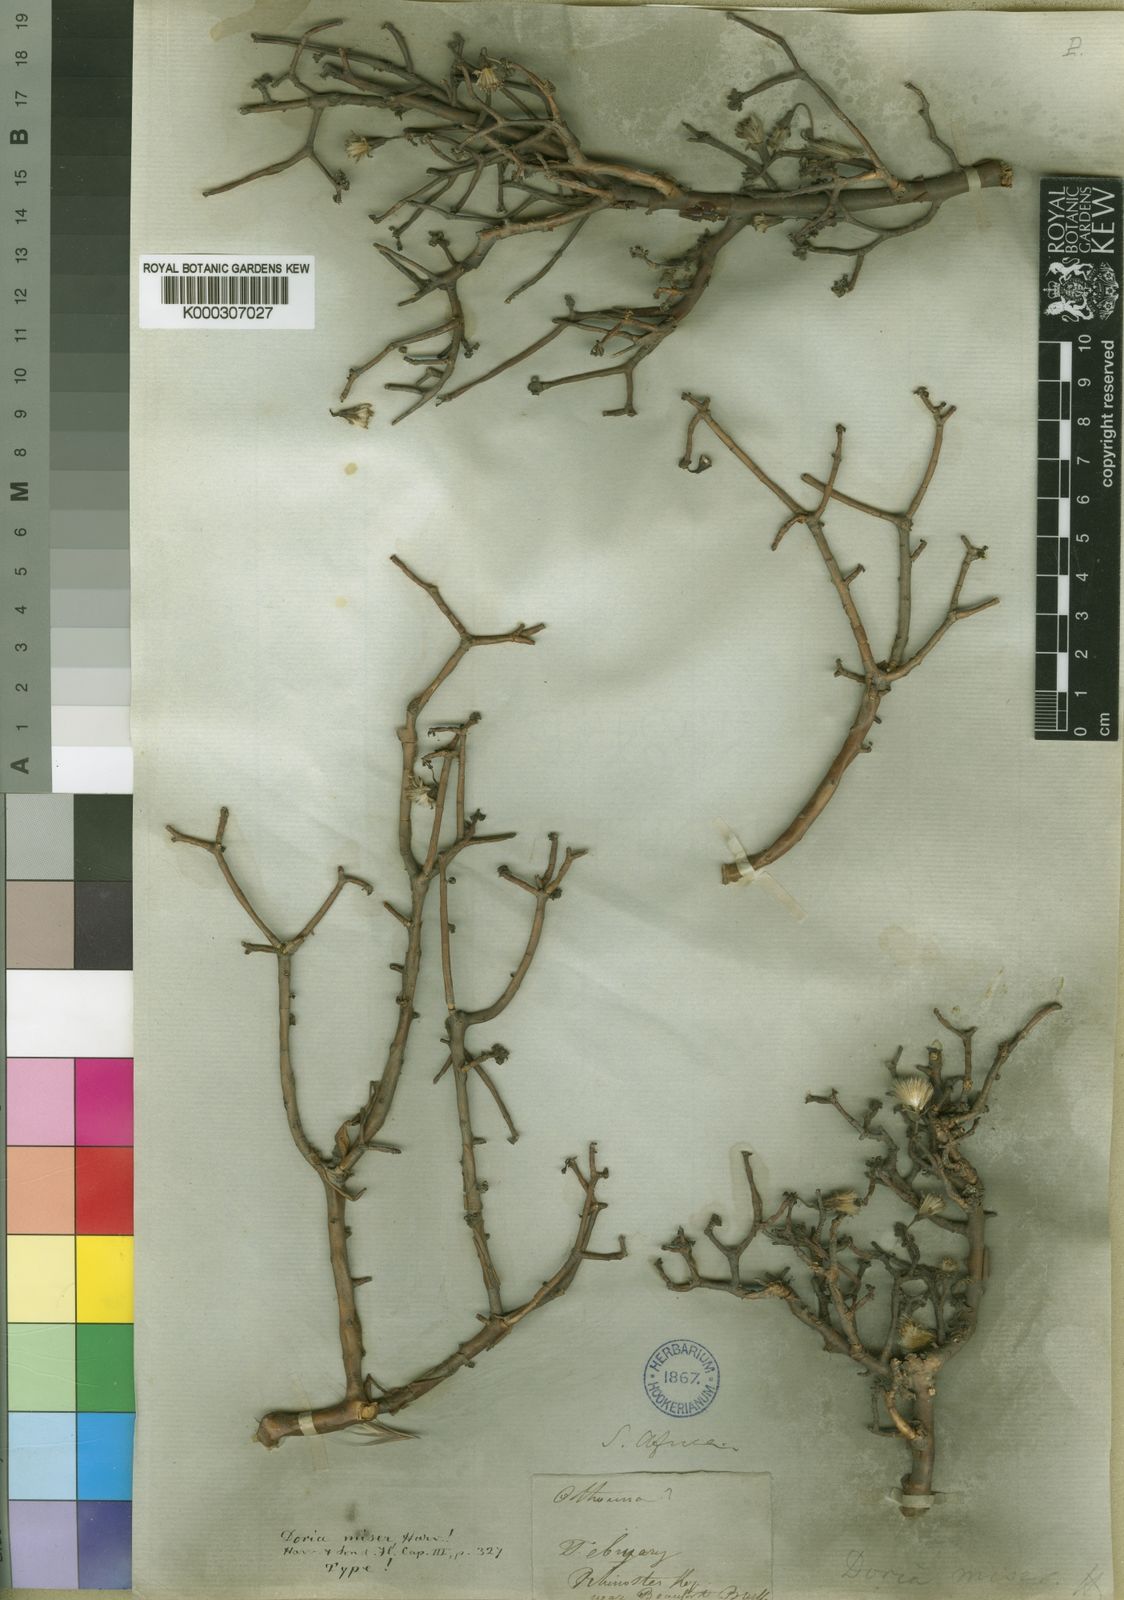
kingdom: Plantae
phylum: Tracheophyta
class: Magnoliopsida
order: Asterales
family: Asteraceae
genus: Othonna
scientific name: Othonna
